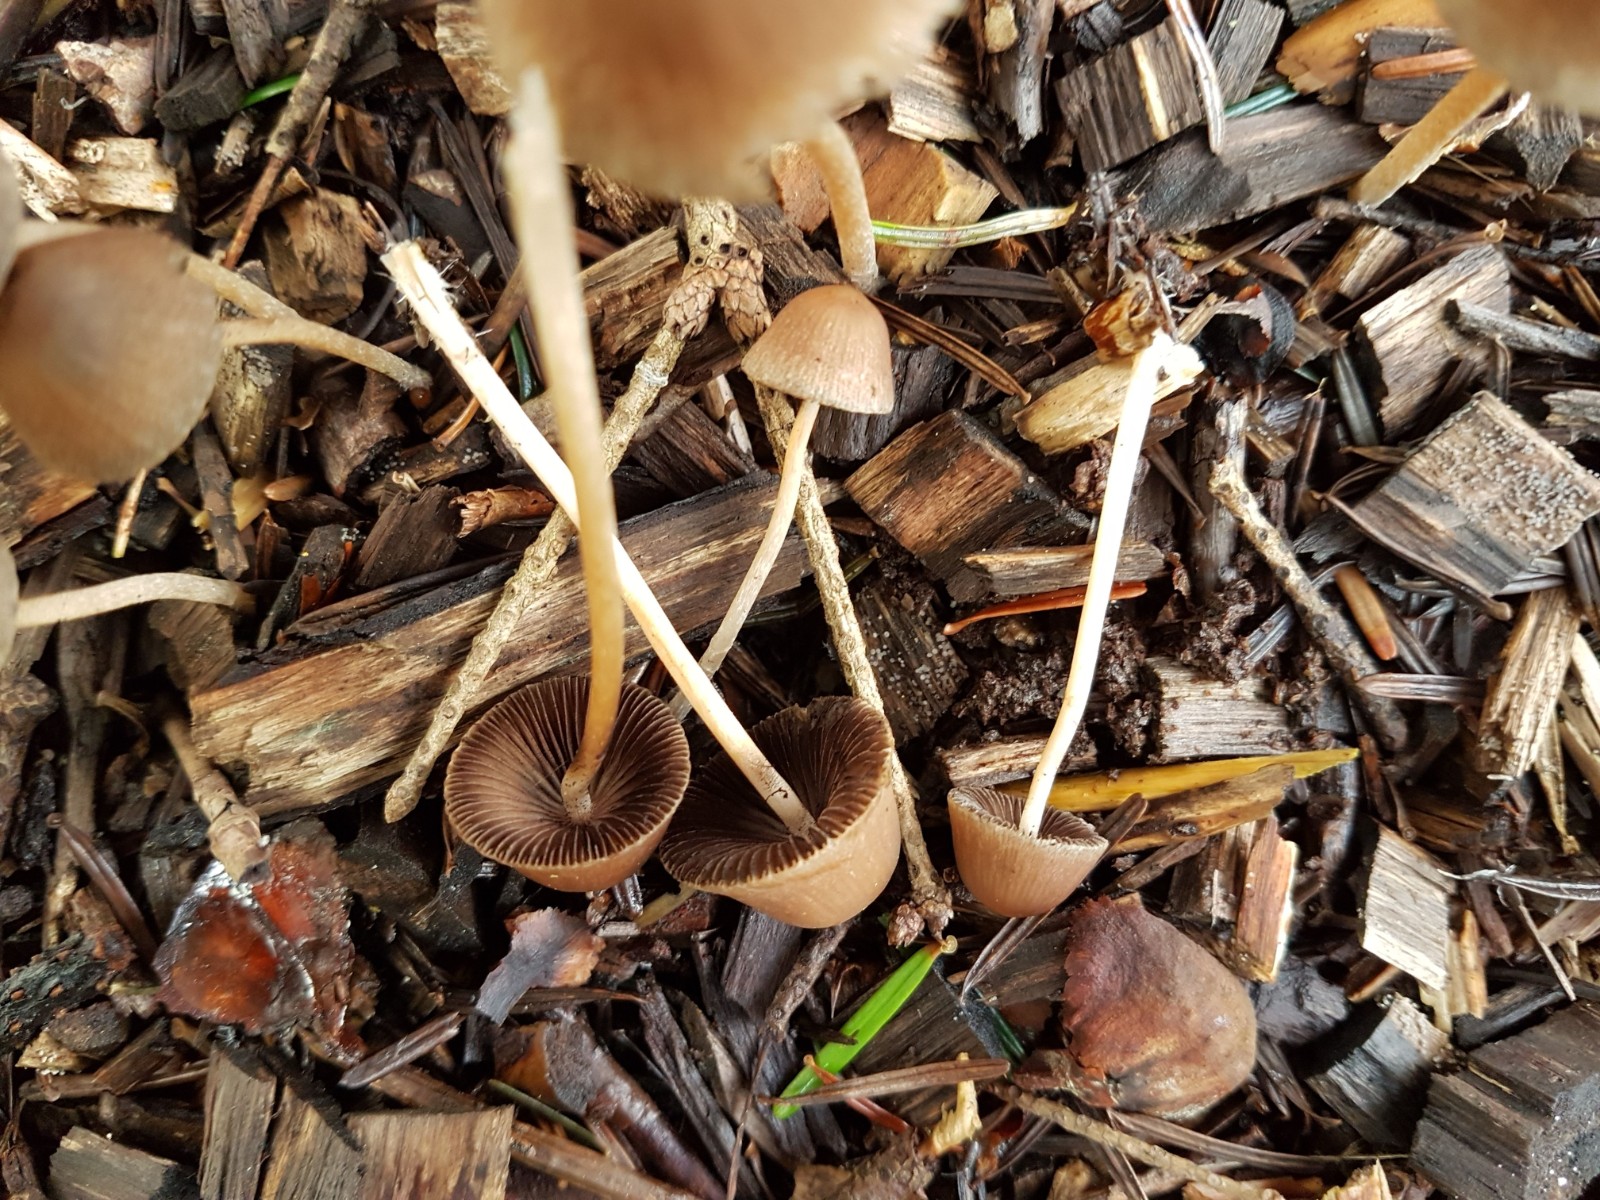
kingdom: Fungi
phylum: Basidiomycota
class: Agaricomycetes
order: Agaricales
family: Psathyrellaceae
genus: Psathyrella
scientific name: Psathyrella
